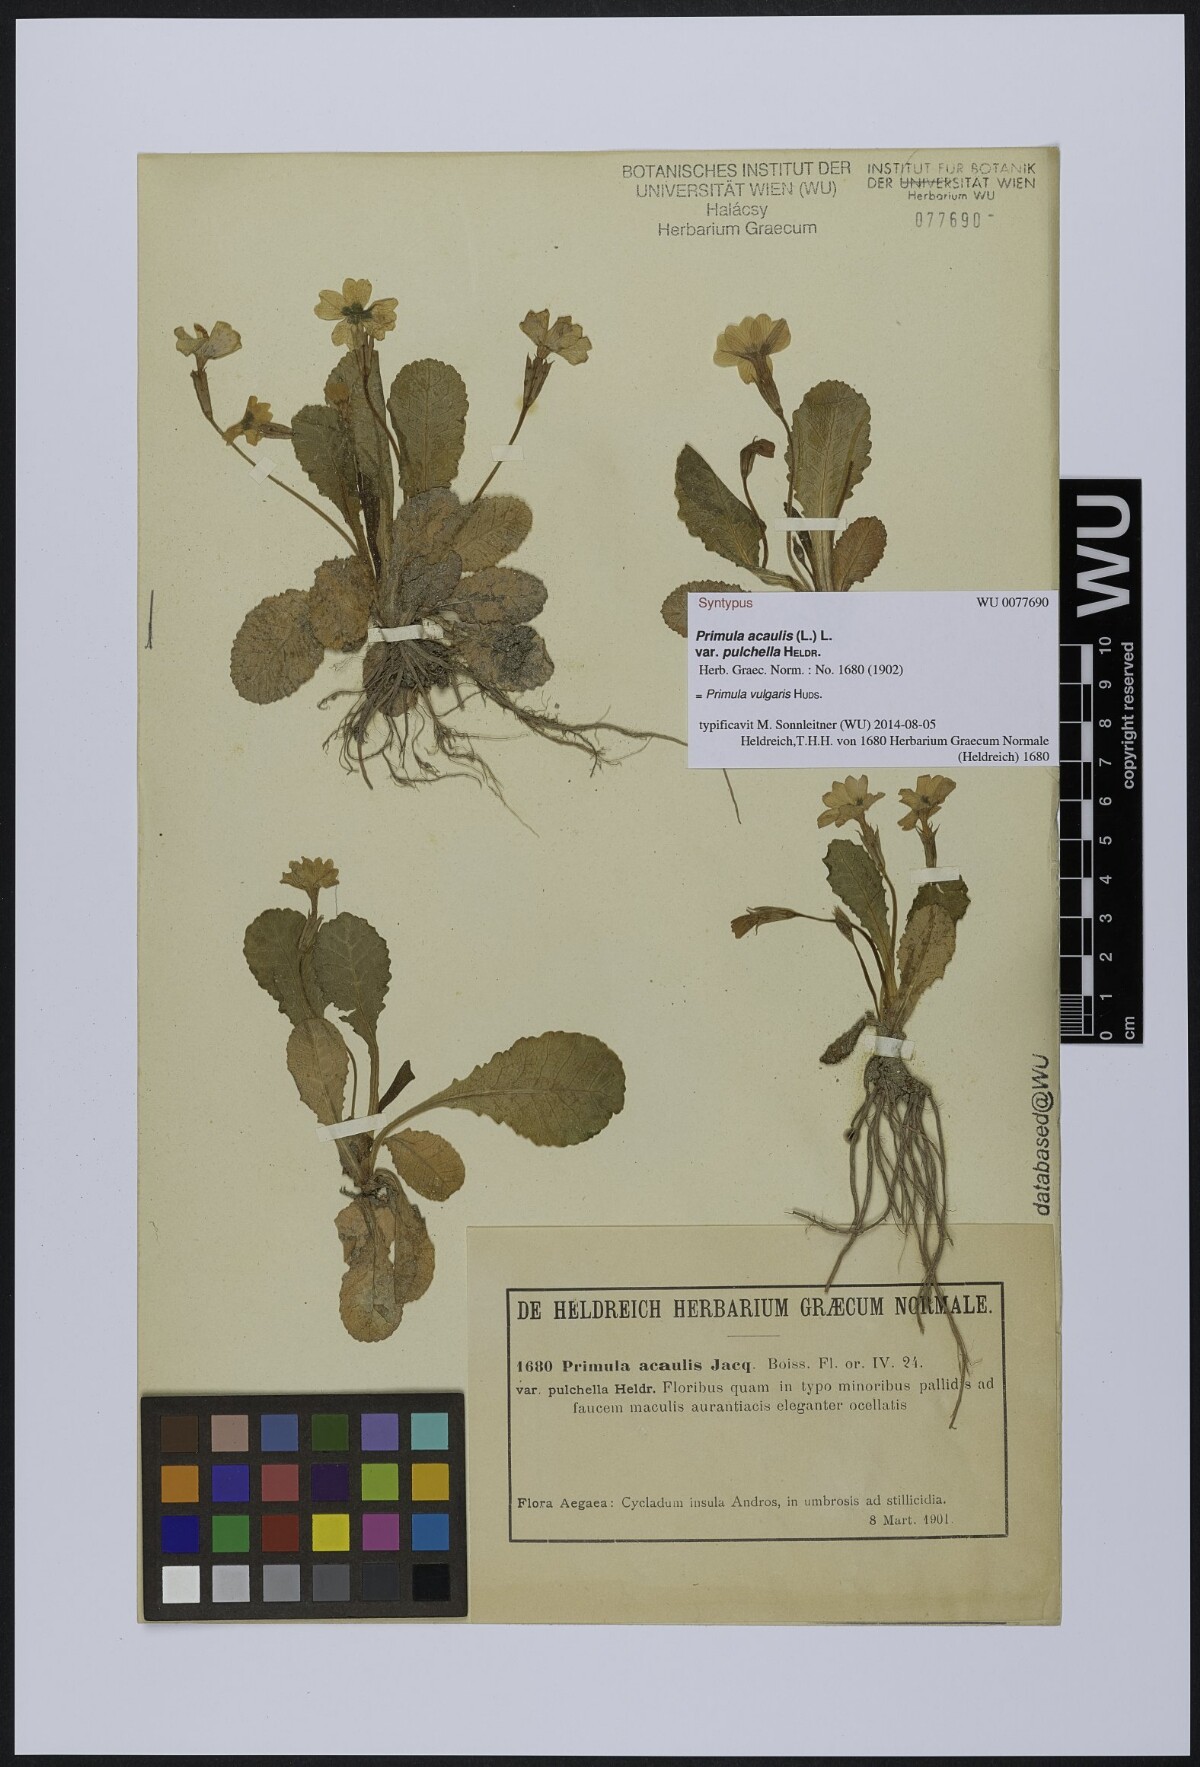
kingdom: Plantae
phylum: Tracheophyta
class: Magnoliopsida
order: Ericales
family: Primulaceae
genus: Primula
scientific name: Primula vulgaris
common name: Primrose
